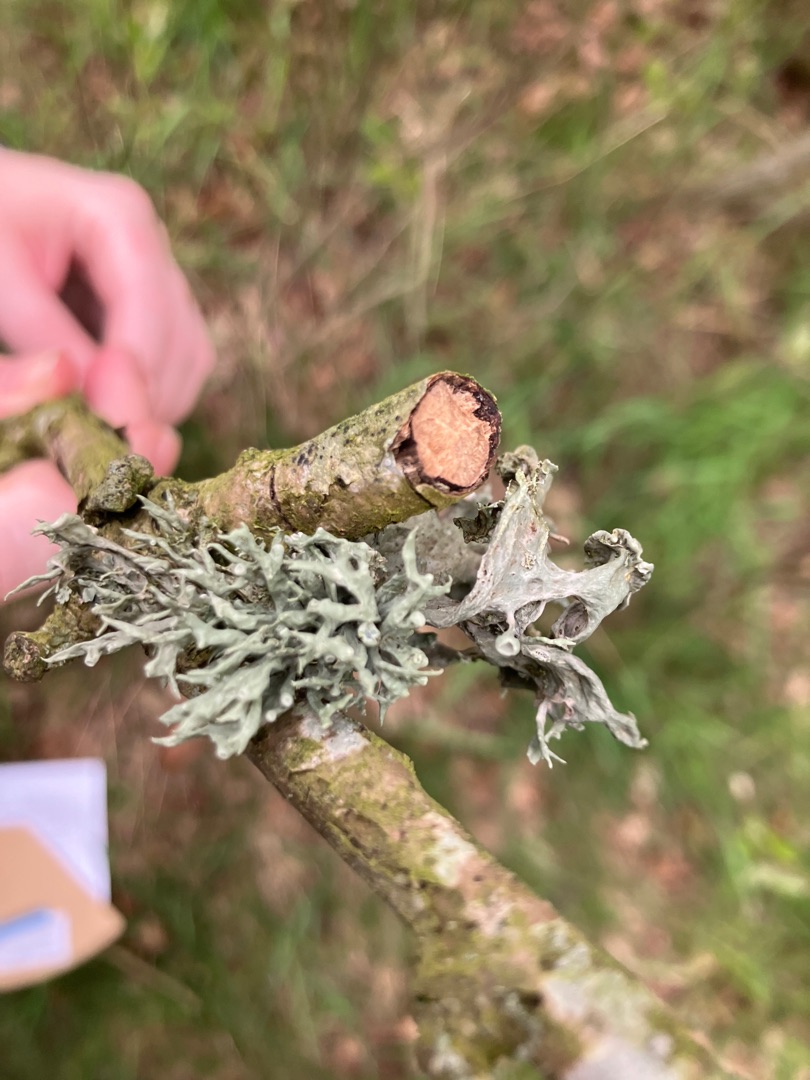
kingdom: Fungi
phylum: Ascomycota
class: Lecanoromycetes
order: Lecanorales
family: Ramalinaceae
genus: Ramalina
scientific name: Ramalina fastigiata
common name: Tue-grenlav
